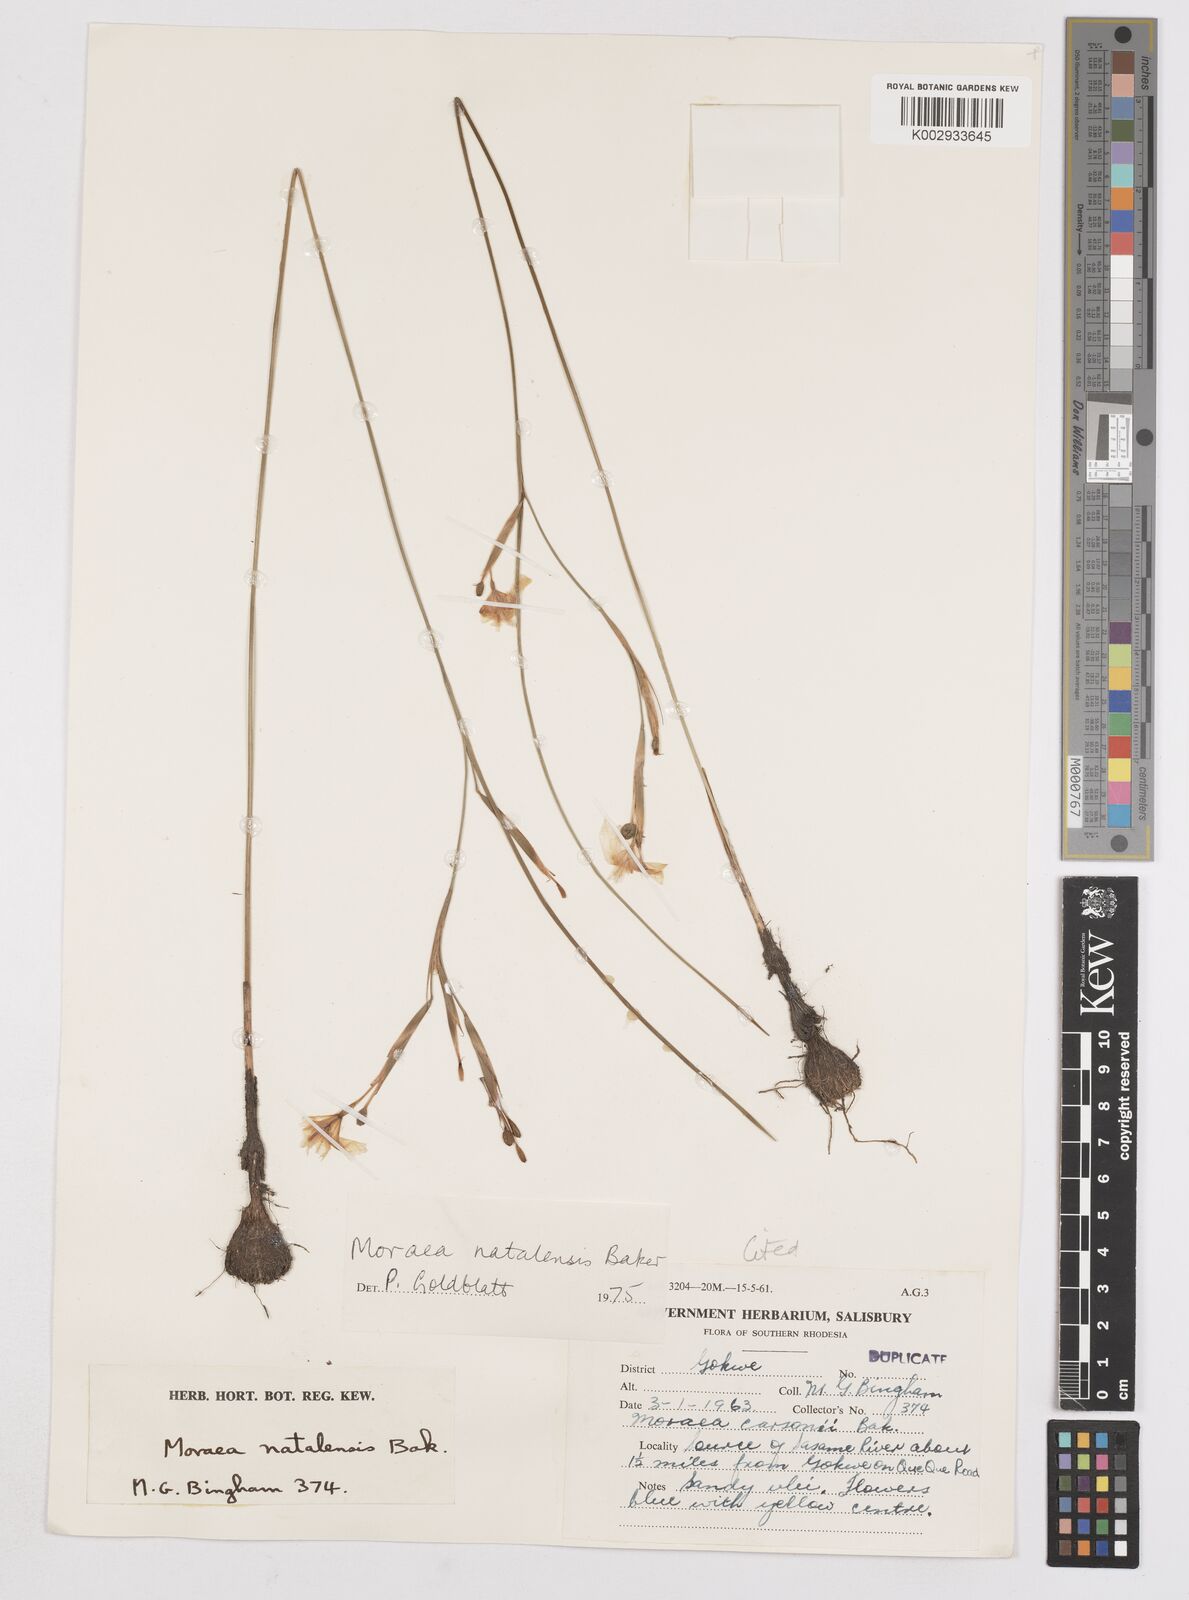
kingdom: Plantae
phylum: Tracheophyta
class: Liliopsida
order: Asparagales
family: Iridaceae
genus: Moraea
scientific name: Moraea natalensis
